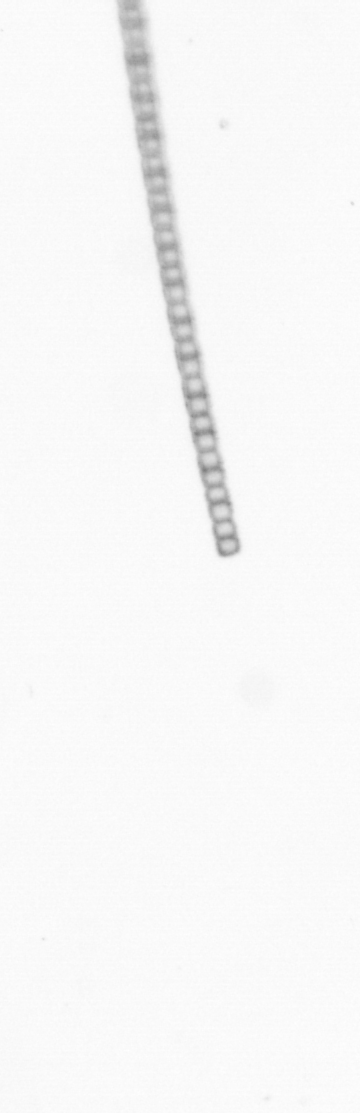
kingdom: Chromista
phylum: Ochrophyta
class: Bacillariophyceae
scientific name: Bacillariophyceae
